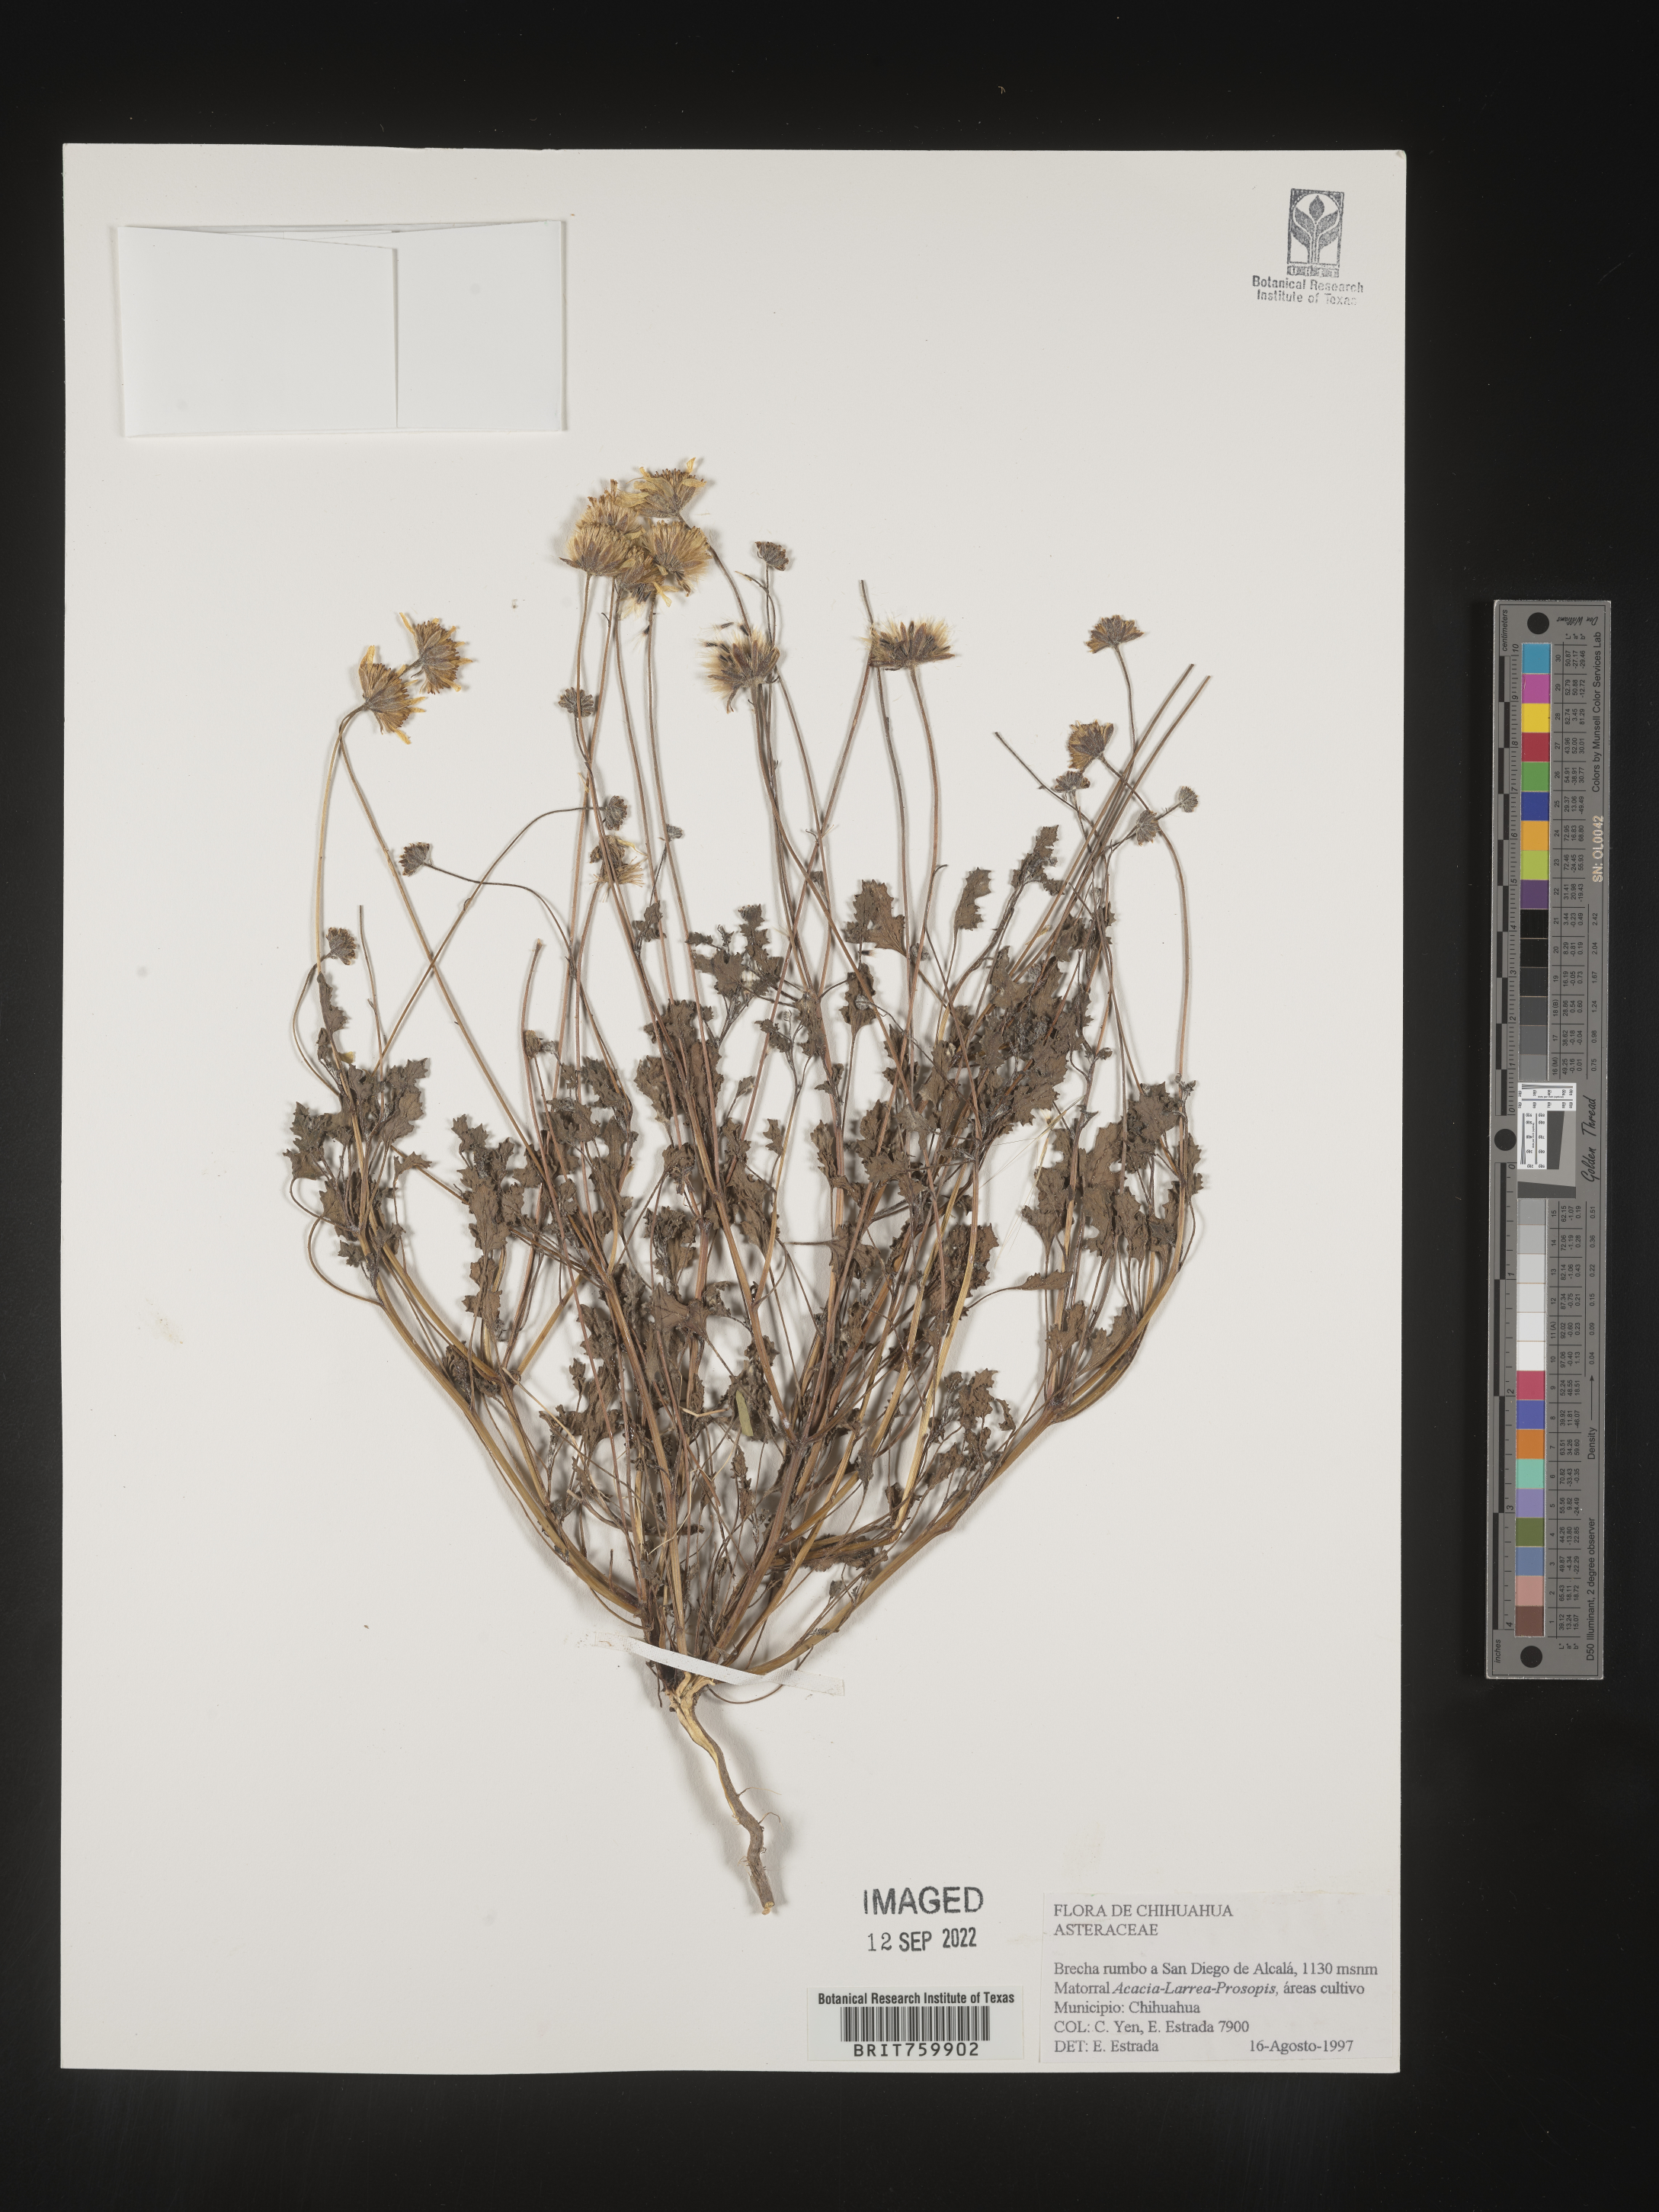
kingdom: Plantae
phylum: Tracheophyta
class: Magnoliopsida
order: Asterales
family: Asteraceae
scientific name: Asteraceae
